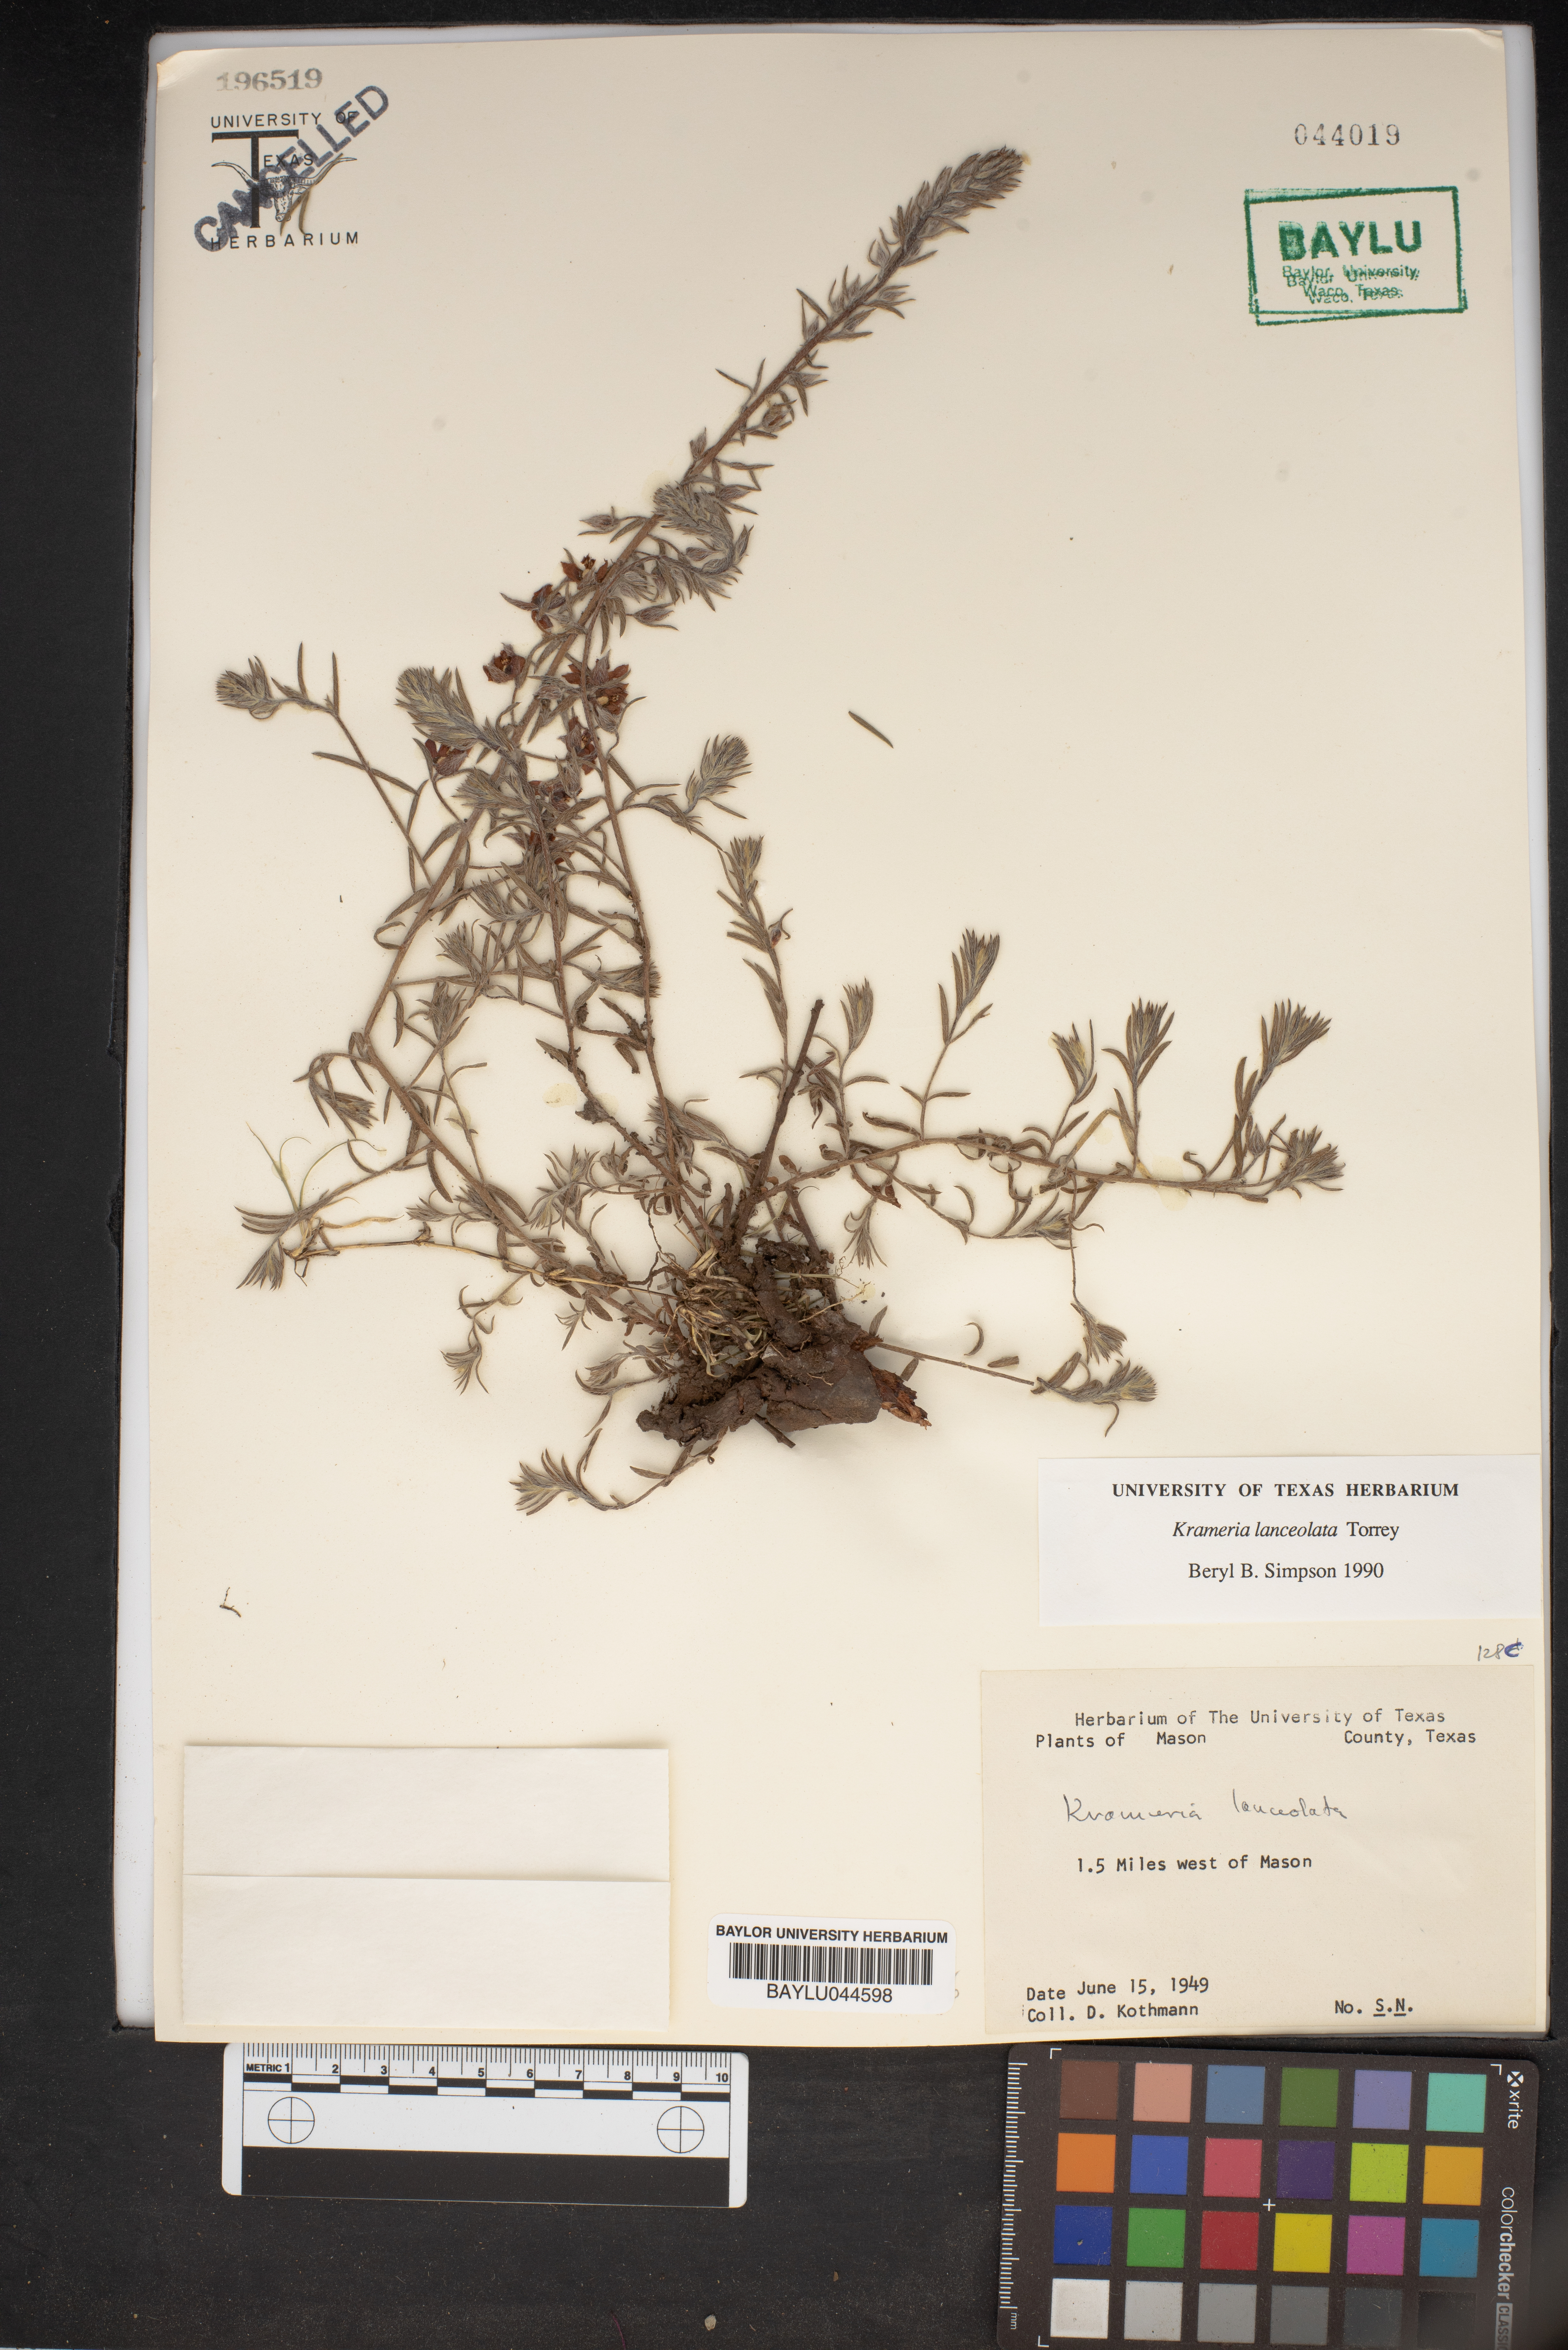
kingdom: Plantae
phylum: Tracheophyta
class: Magnoliopsida
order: Zygophyllales
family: Krameriaceae
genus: Krameria
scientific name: Krameria lanceolata
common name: Ratany
